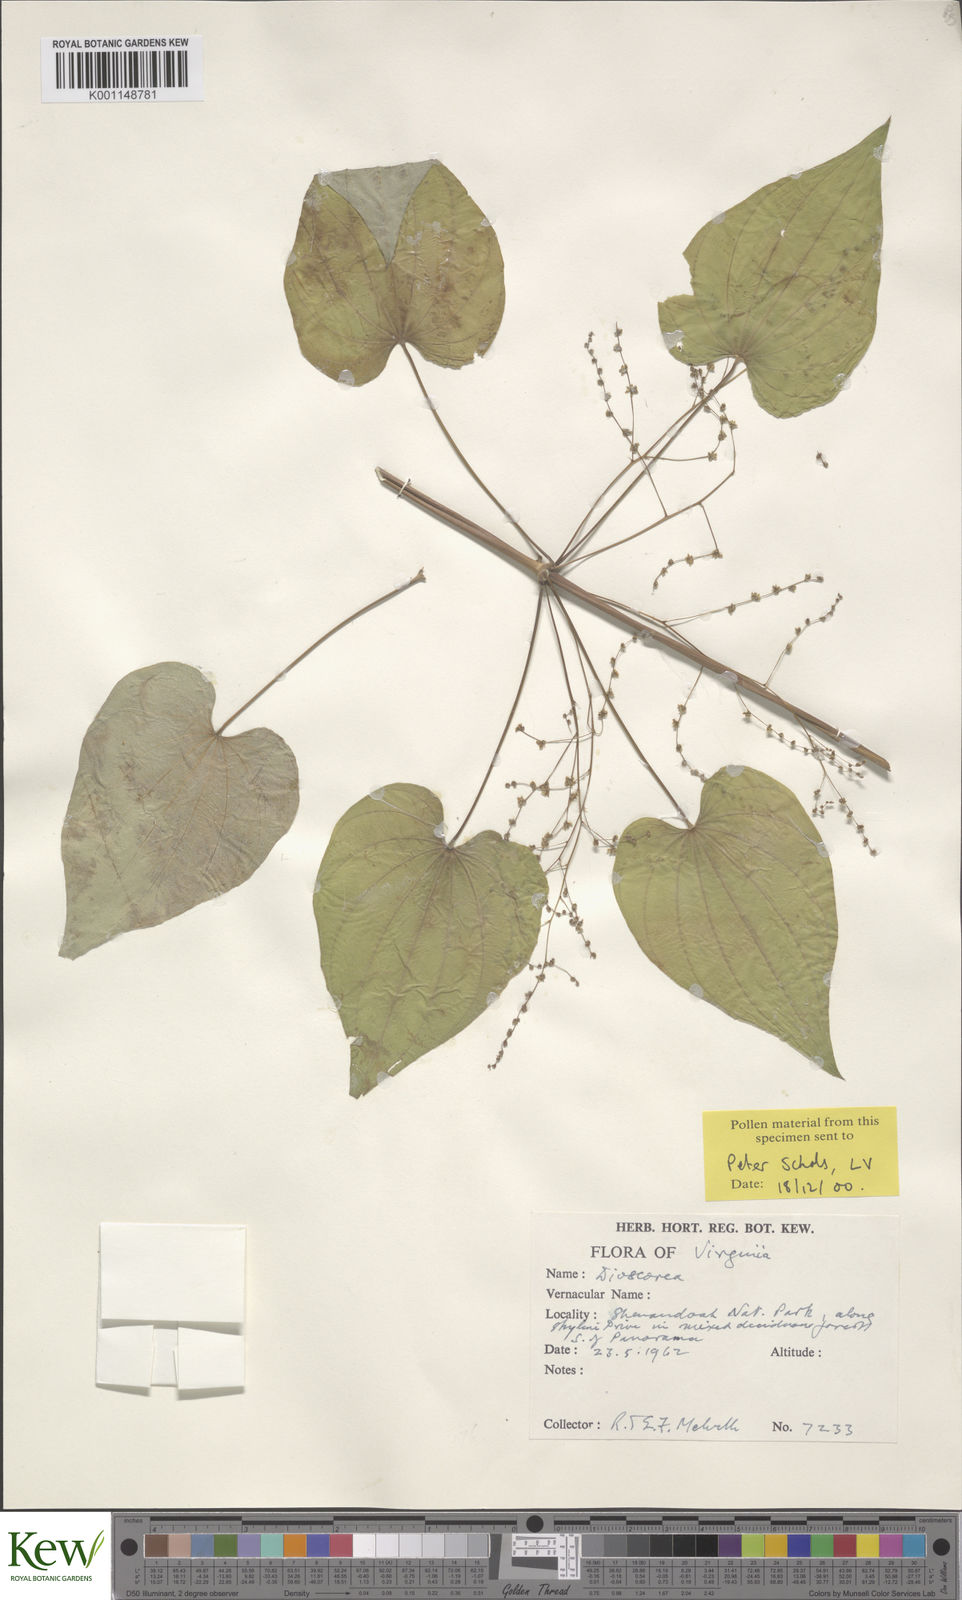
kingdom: Plantae
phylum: Tracheophyta
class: Liliopsida
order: Dioscoreales
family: Dioscoreaceae
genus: Dioscorea
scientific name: Dioscorea villosa
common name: Wild yam
